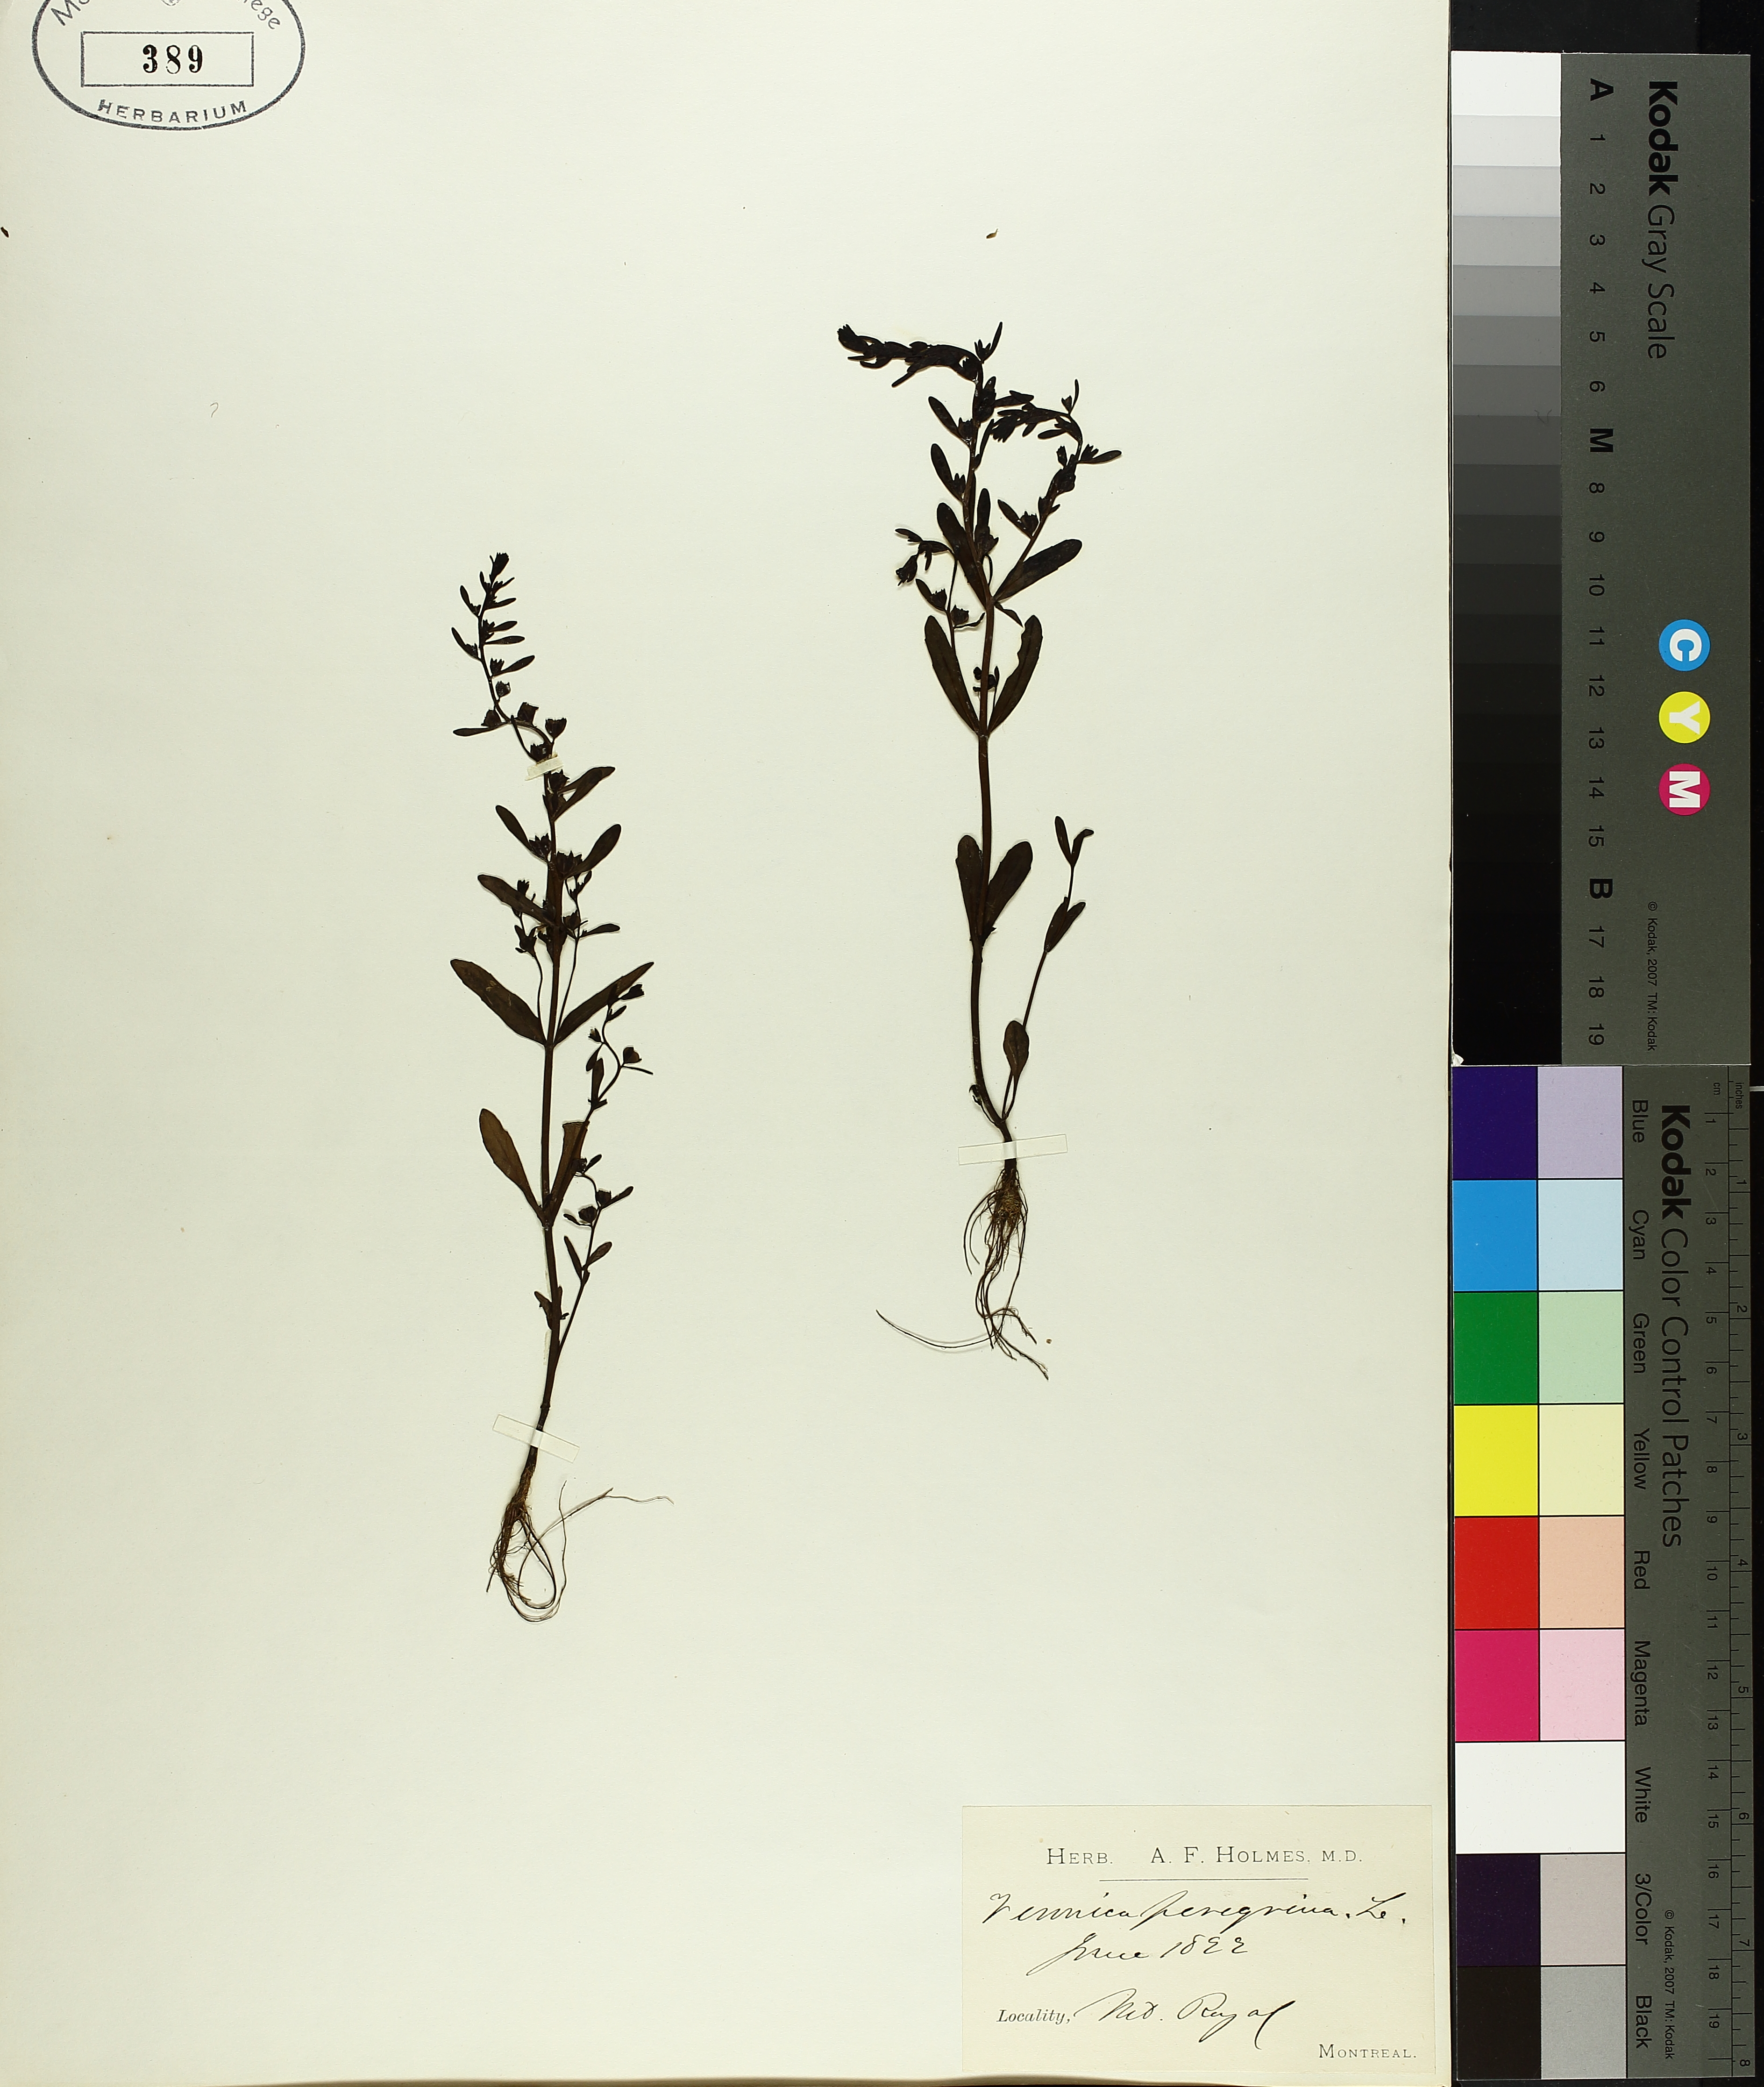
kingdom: Plantae
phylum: Tracheophyta
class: Magnoliopsida
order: Lamiales
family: Plantaginaceae
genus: Veronica
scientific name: Veronica peregrina
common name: Neckweed
